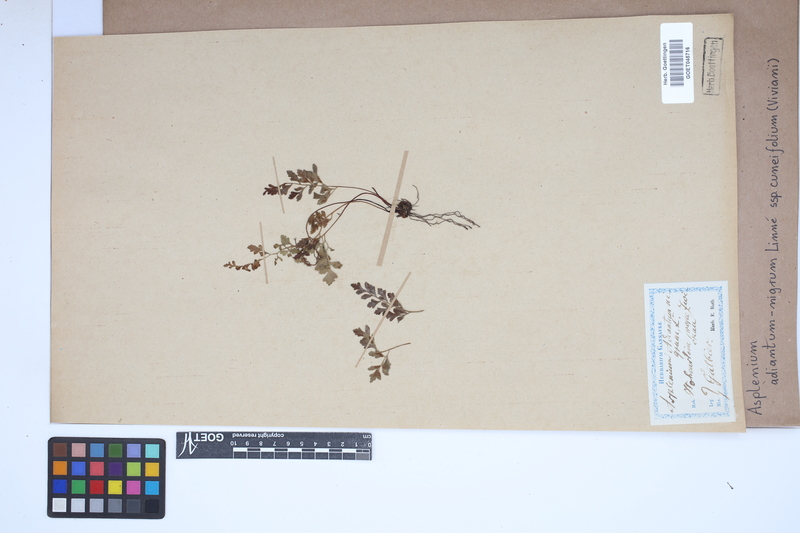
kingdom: Plantae
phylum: Tracheophyta
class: Polypodiopsida
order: Polypodiales
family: Aspleniaceae
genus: Asplenium
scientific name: Asplenium cuneifolium
